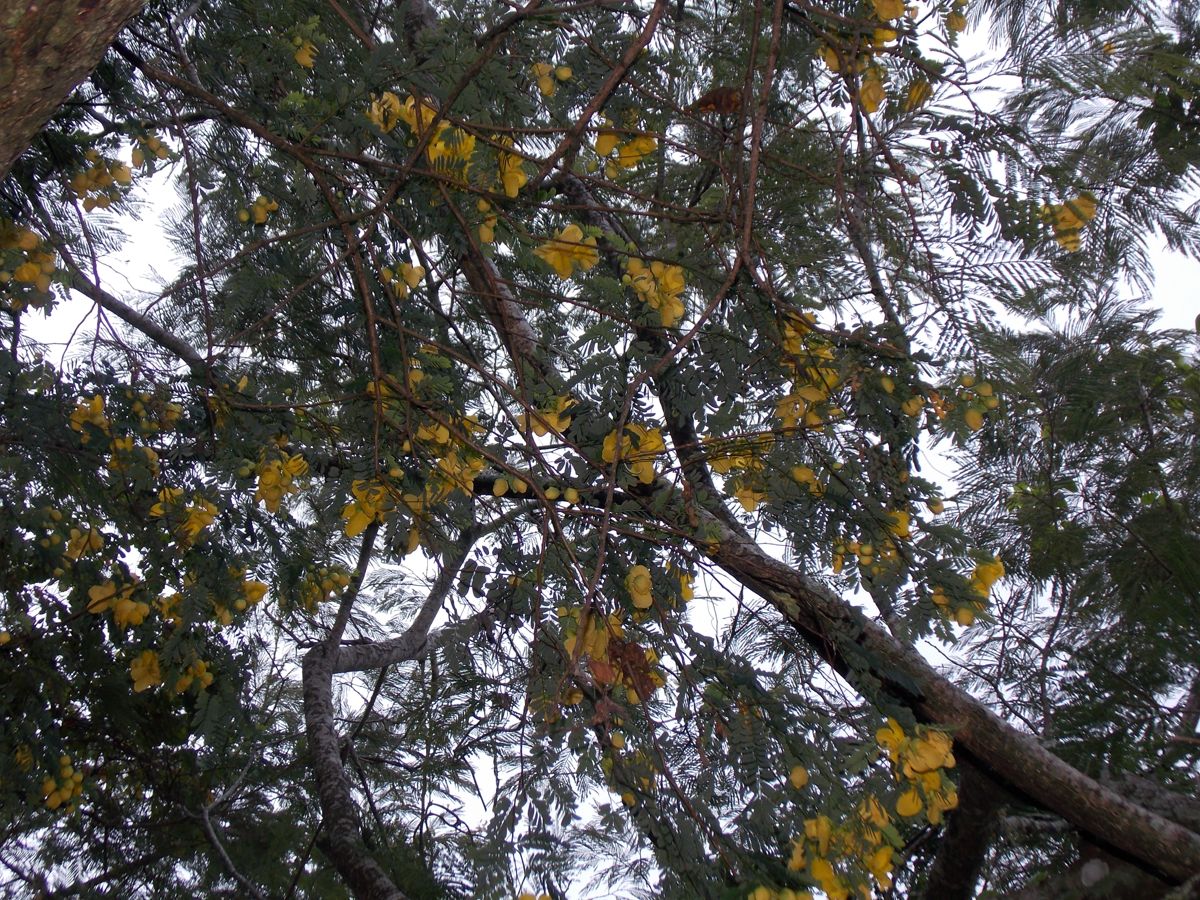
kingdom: Plantae
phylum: Tracheophyta
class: Magnoliopsida
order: Fabales
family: Fabaceae
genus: Senna
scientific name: Senna pallida
